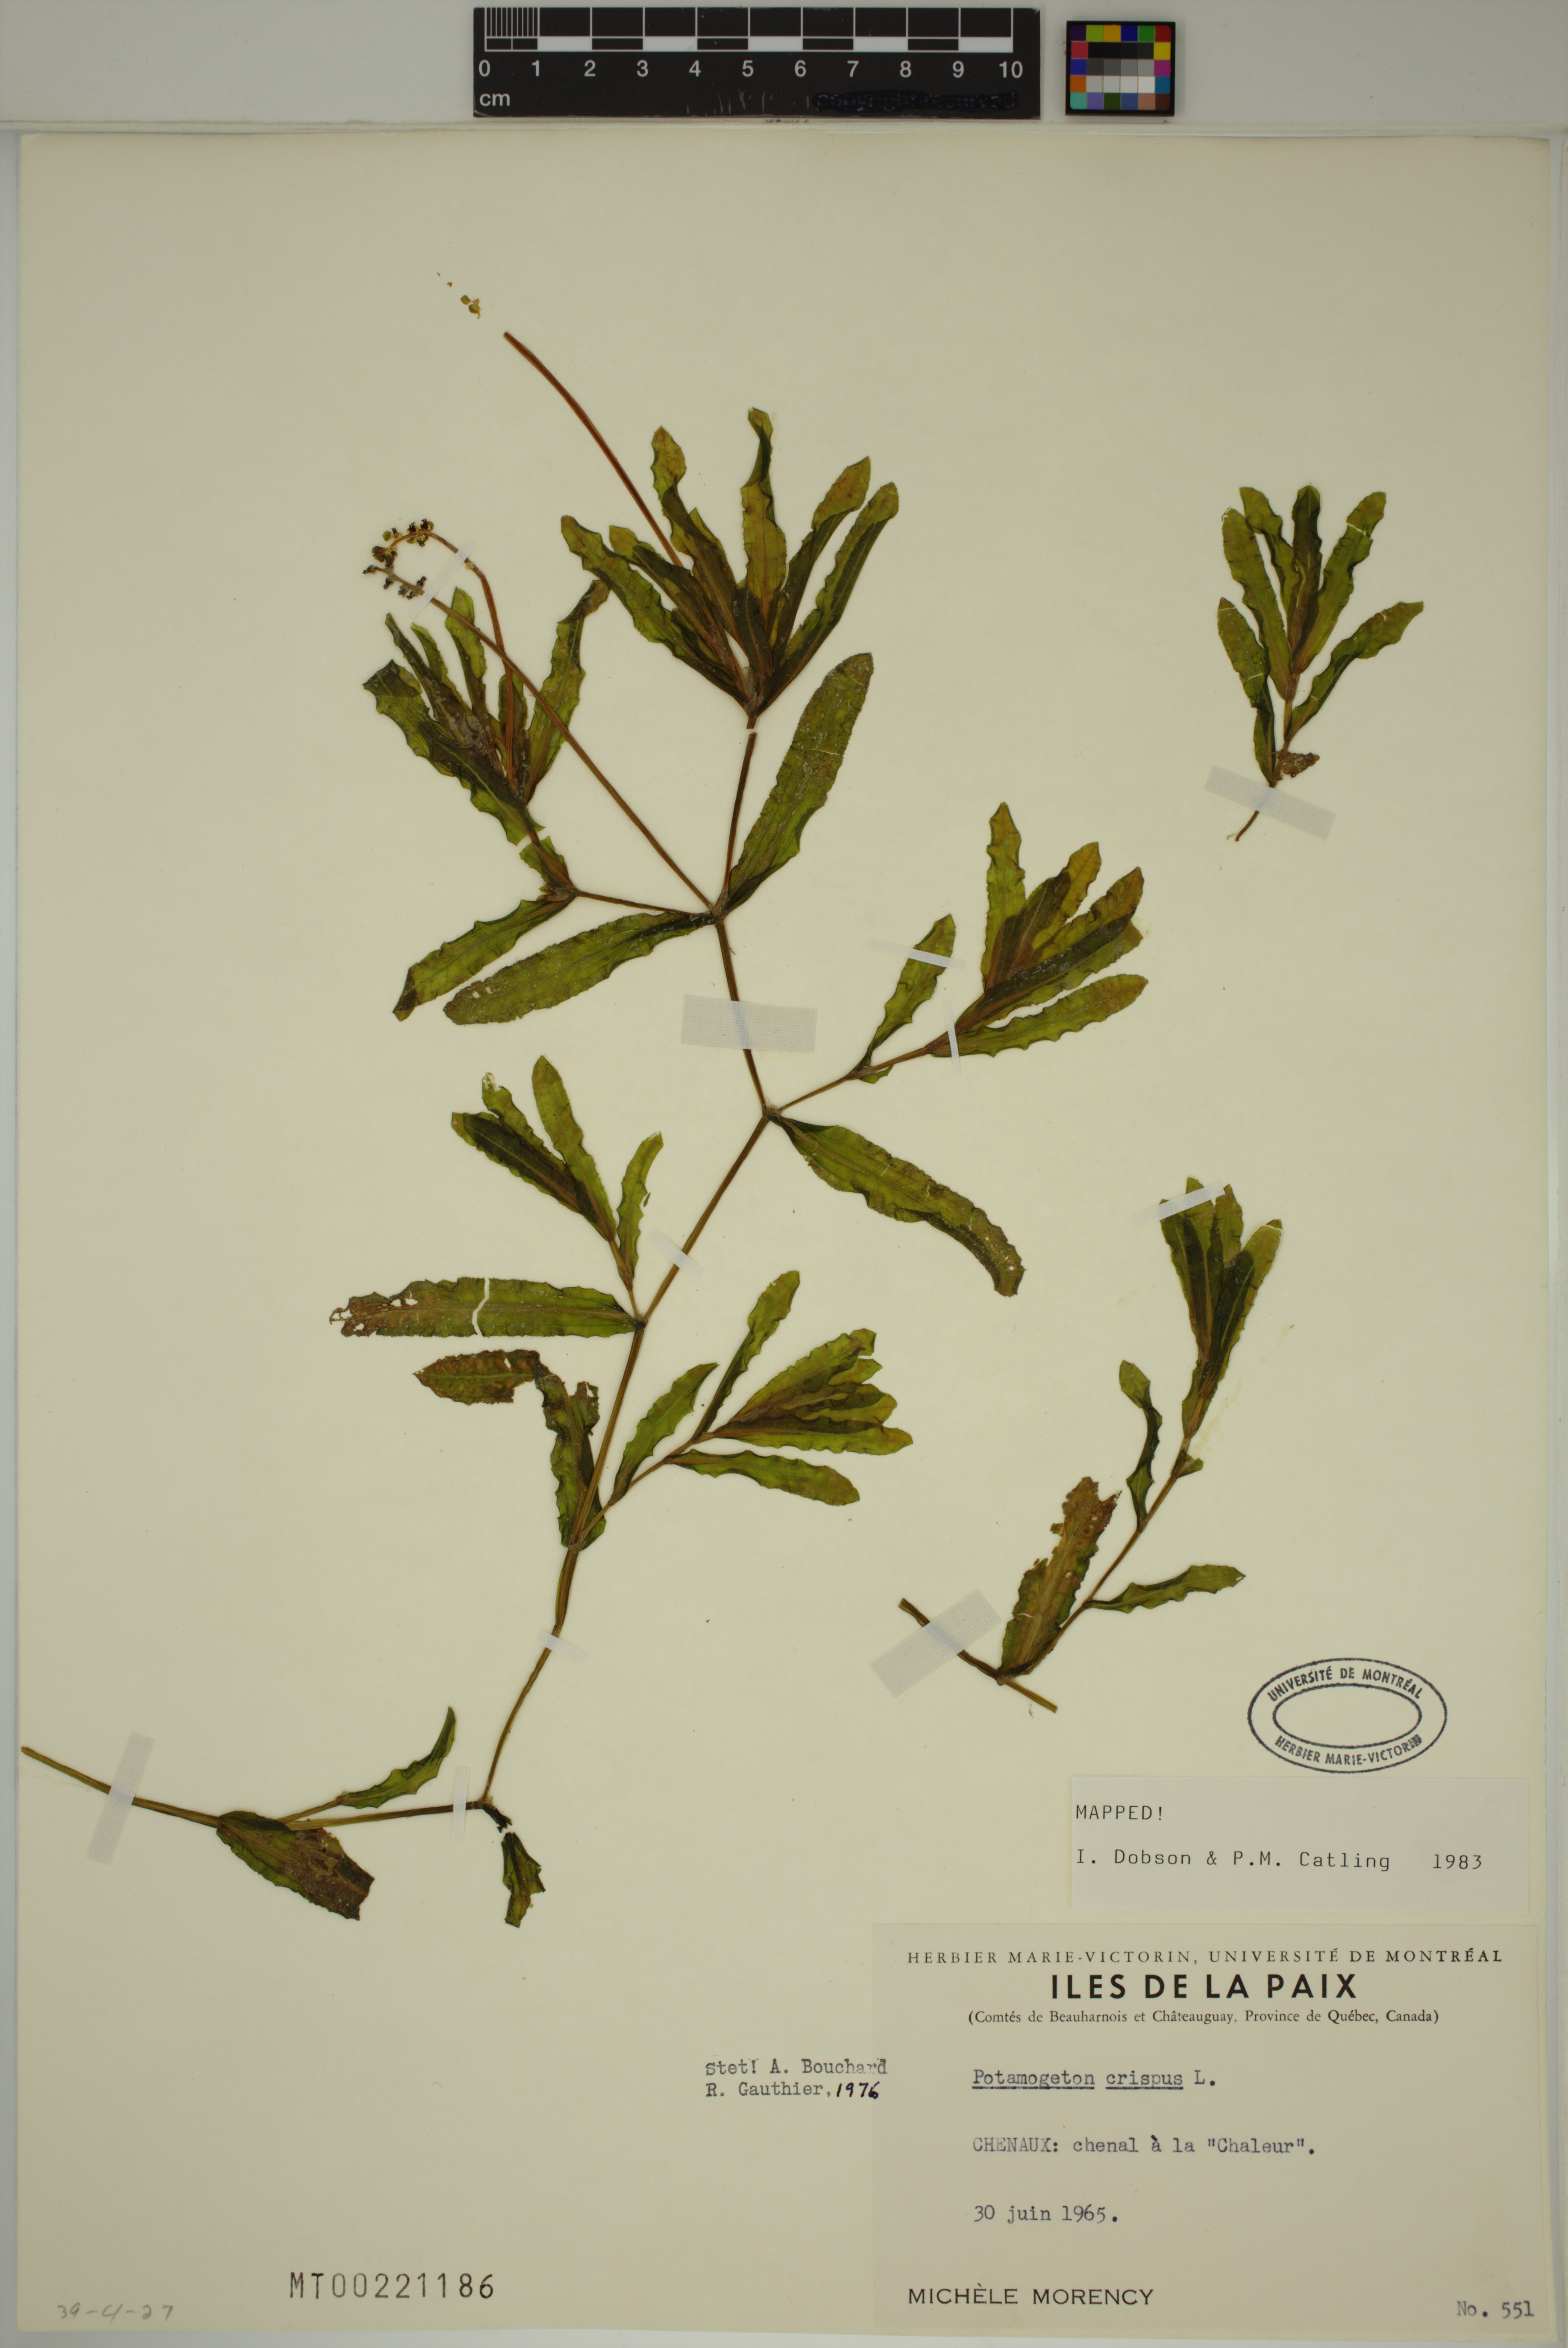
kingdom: Plantae
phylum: Tracheophyta
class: Liliopsida
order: Alismatales
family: Potamogetonaceae
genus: Potamogeton
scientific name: Potamogeton crispus
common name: Curled pondweed
